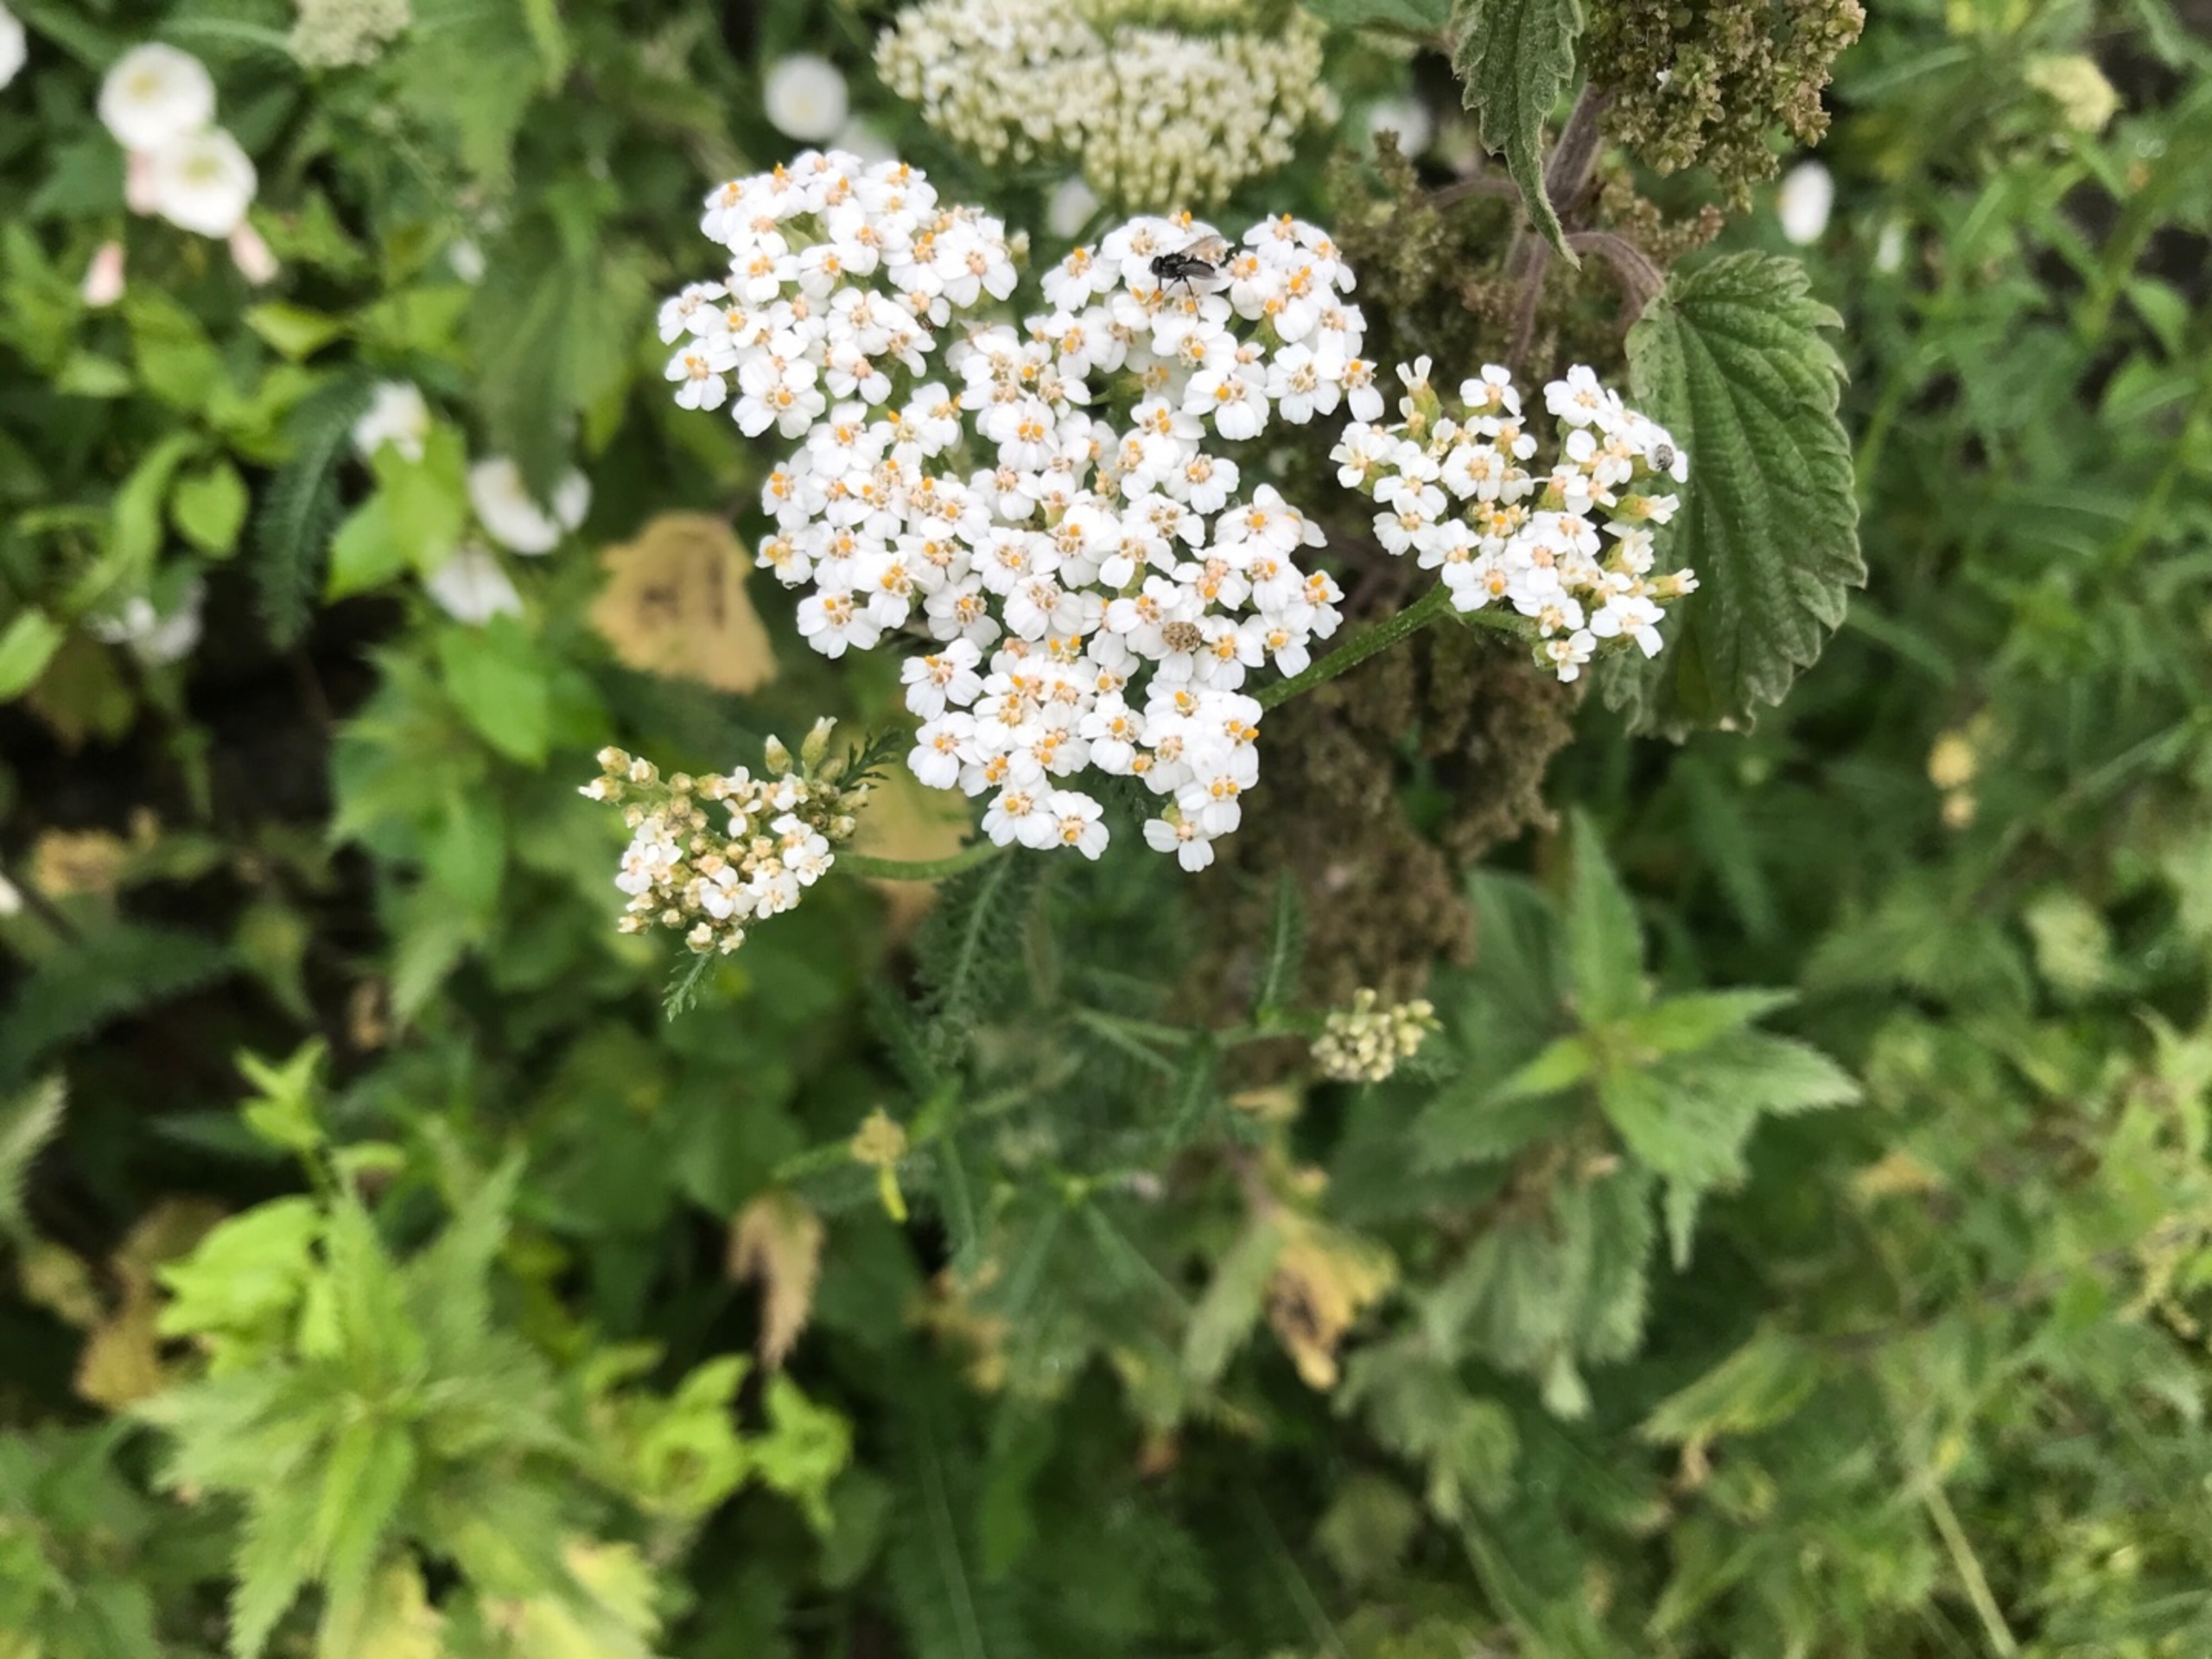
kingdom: Plantae
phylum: Tracheophyta
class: Magnoliopsida
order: Asterales
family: Asteraceae
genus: Achillea
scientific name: Achillea millefolium
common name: Almindelig røllike
